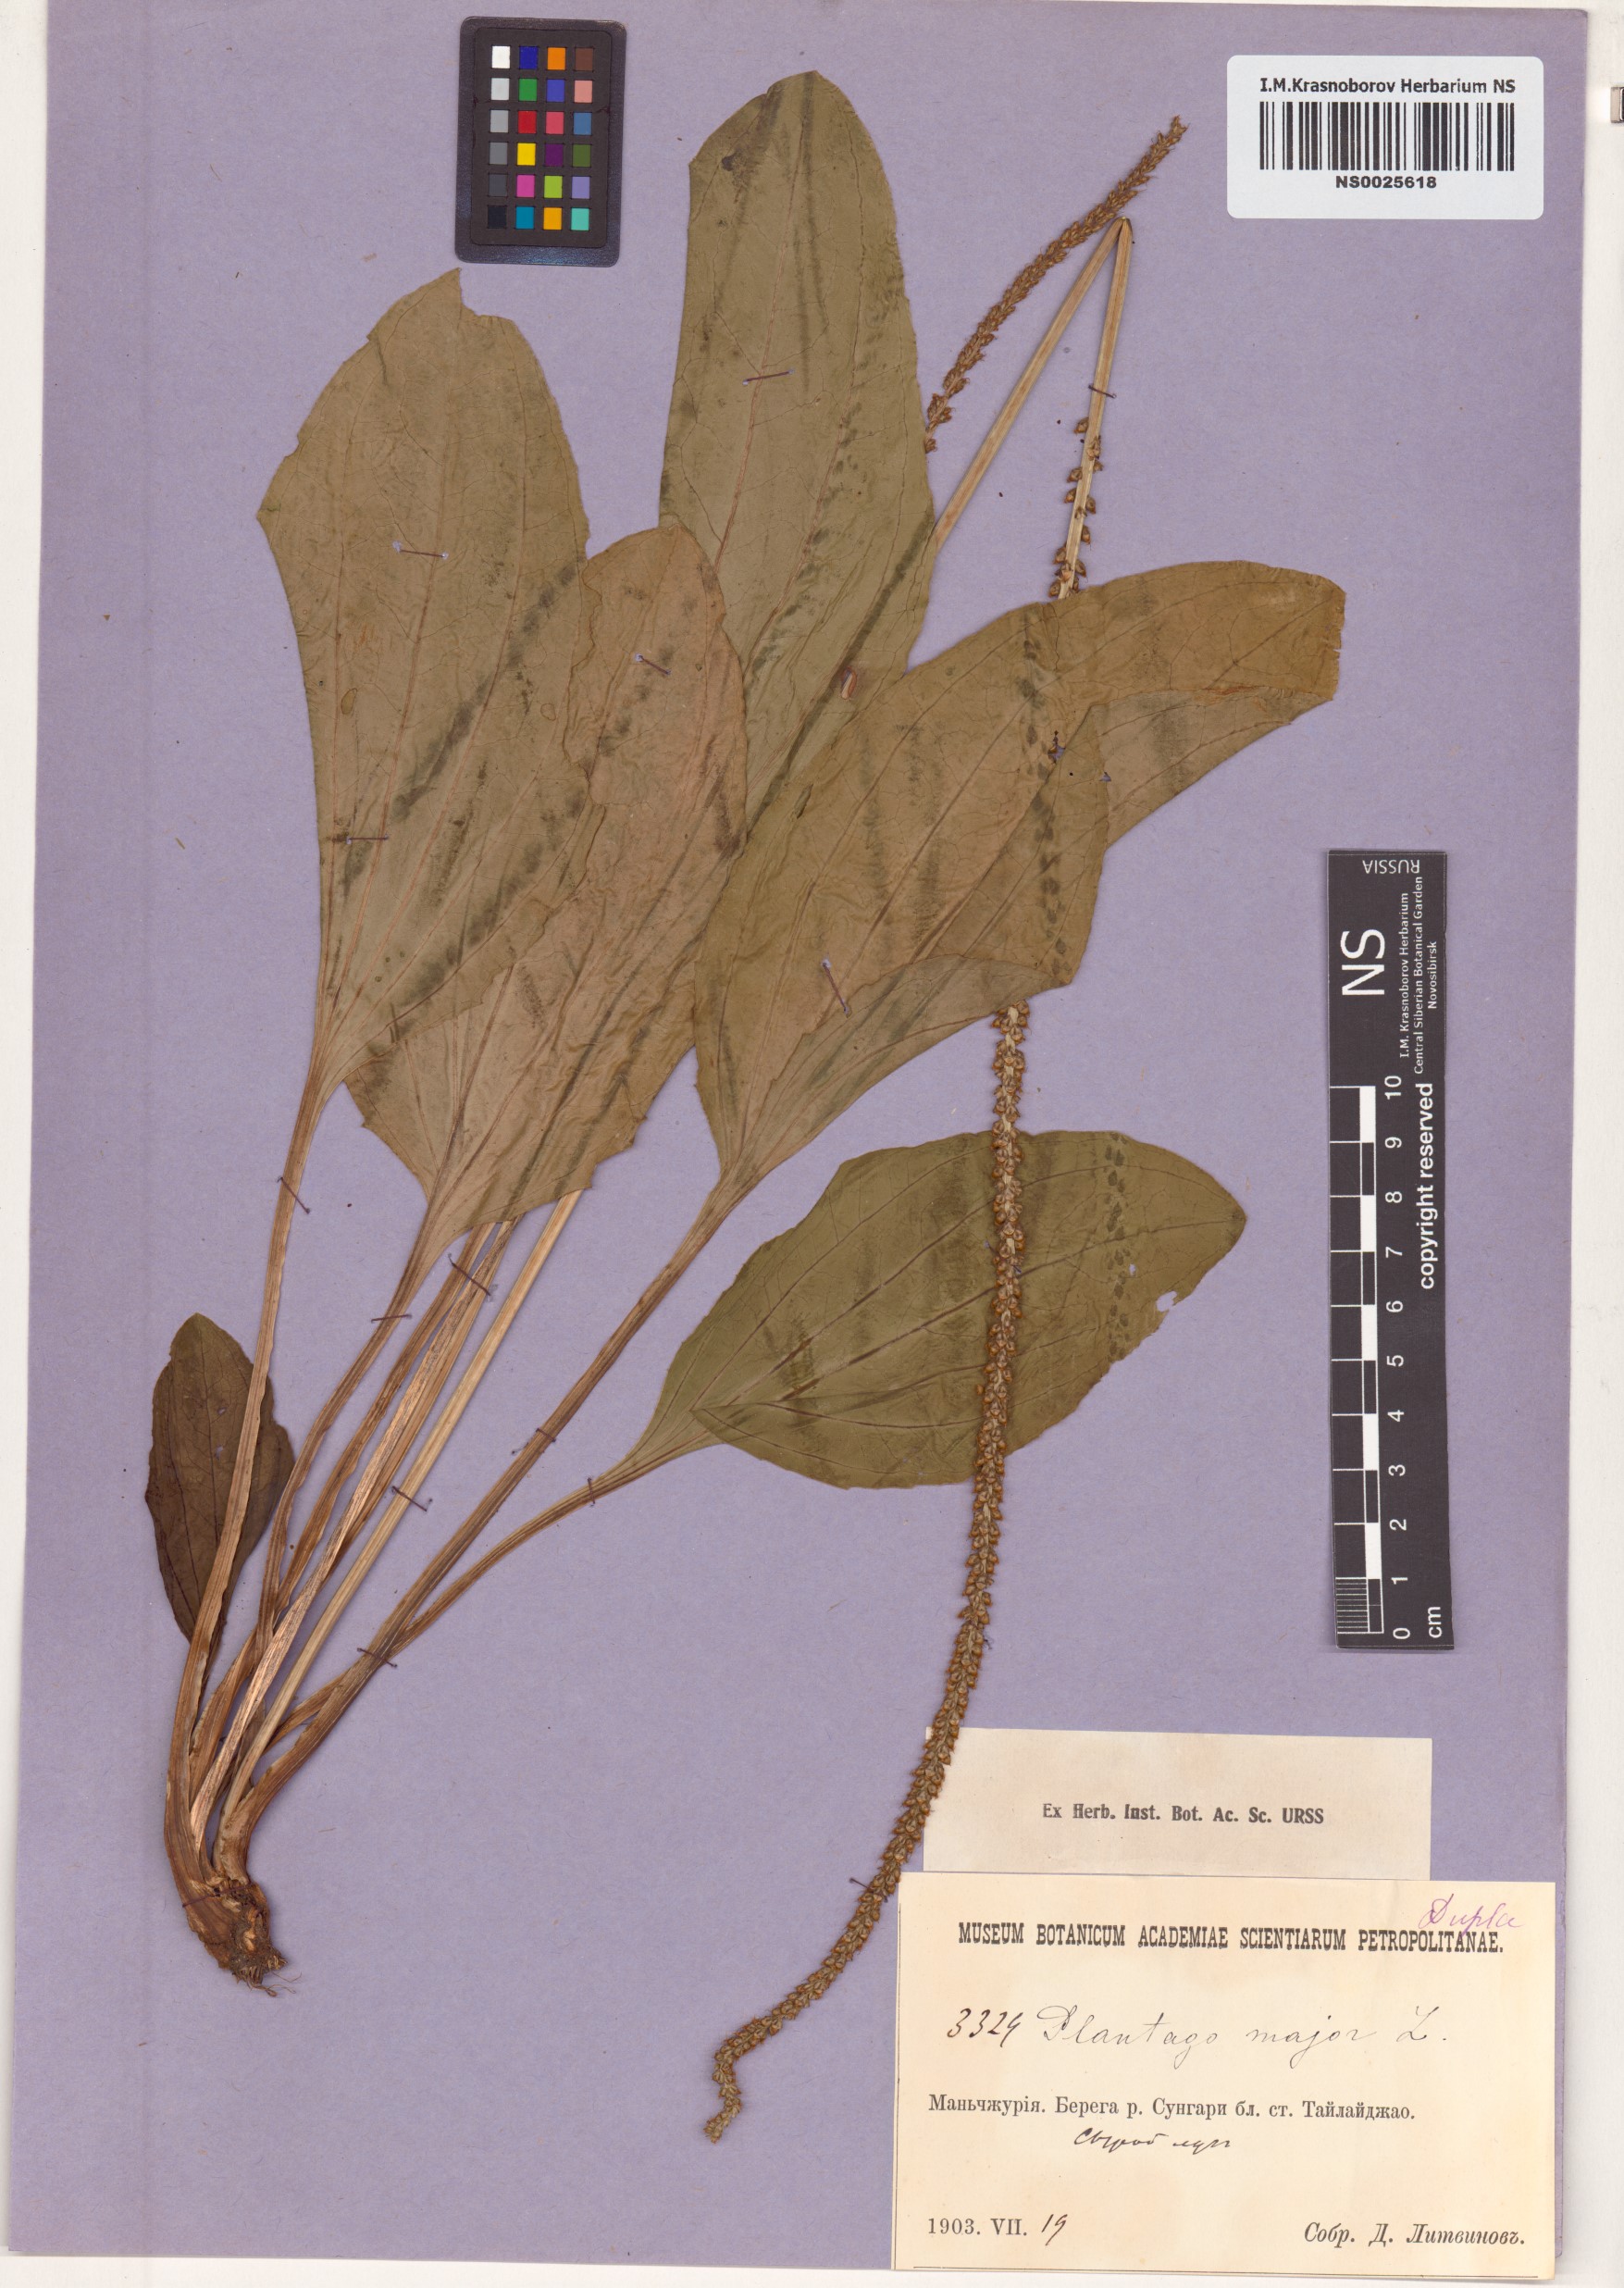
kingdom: Plantae
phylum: Tracheophyta
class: Magnoliopsida
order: Lamiales
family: Plantaginaceae
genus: Plantago
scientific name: Plantago major
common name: Common plantain
